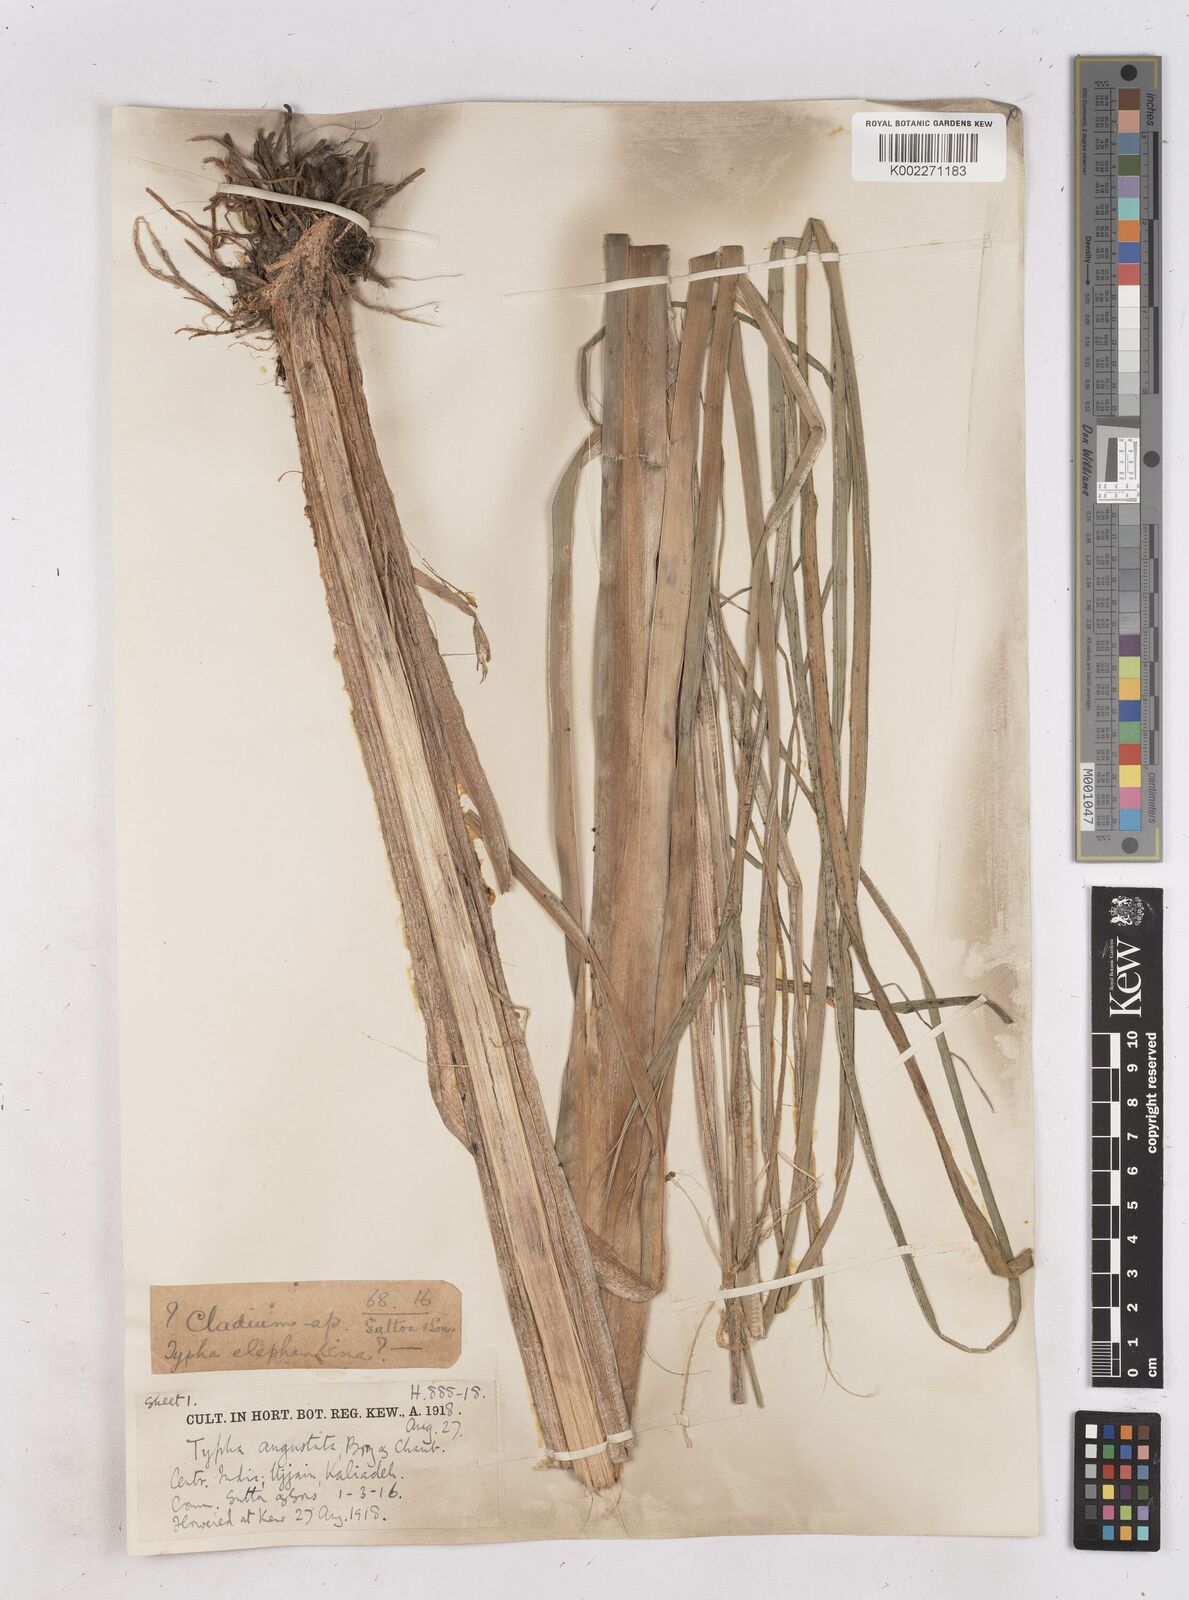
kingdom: Plantae
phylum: Tracheophyta
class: Liliopsida
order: Poales
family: Typhaceae
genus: Typha
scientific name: Typha domingensis
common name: Southern cattail
